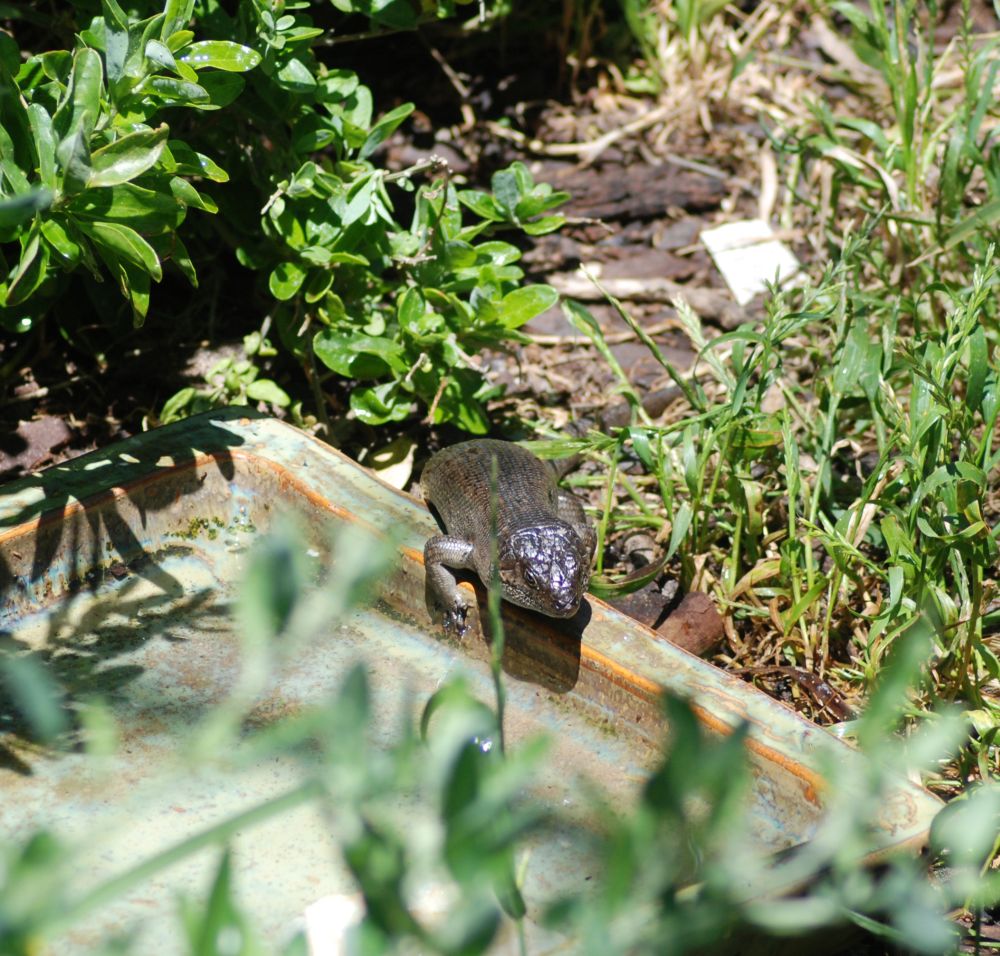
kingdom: Animalia
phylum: Chordata
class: Squamata
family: Scincidae
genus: Egernia
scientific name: Egernia kingii
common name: King's skink
